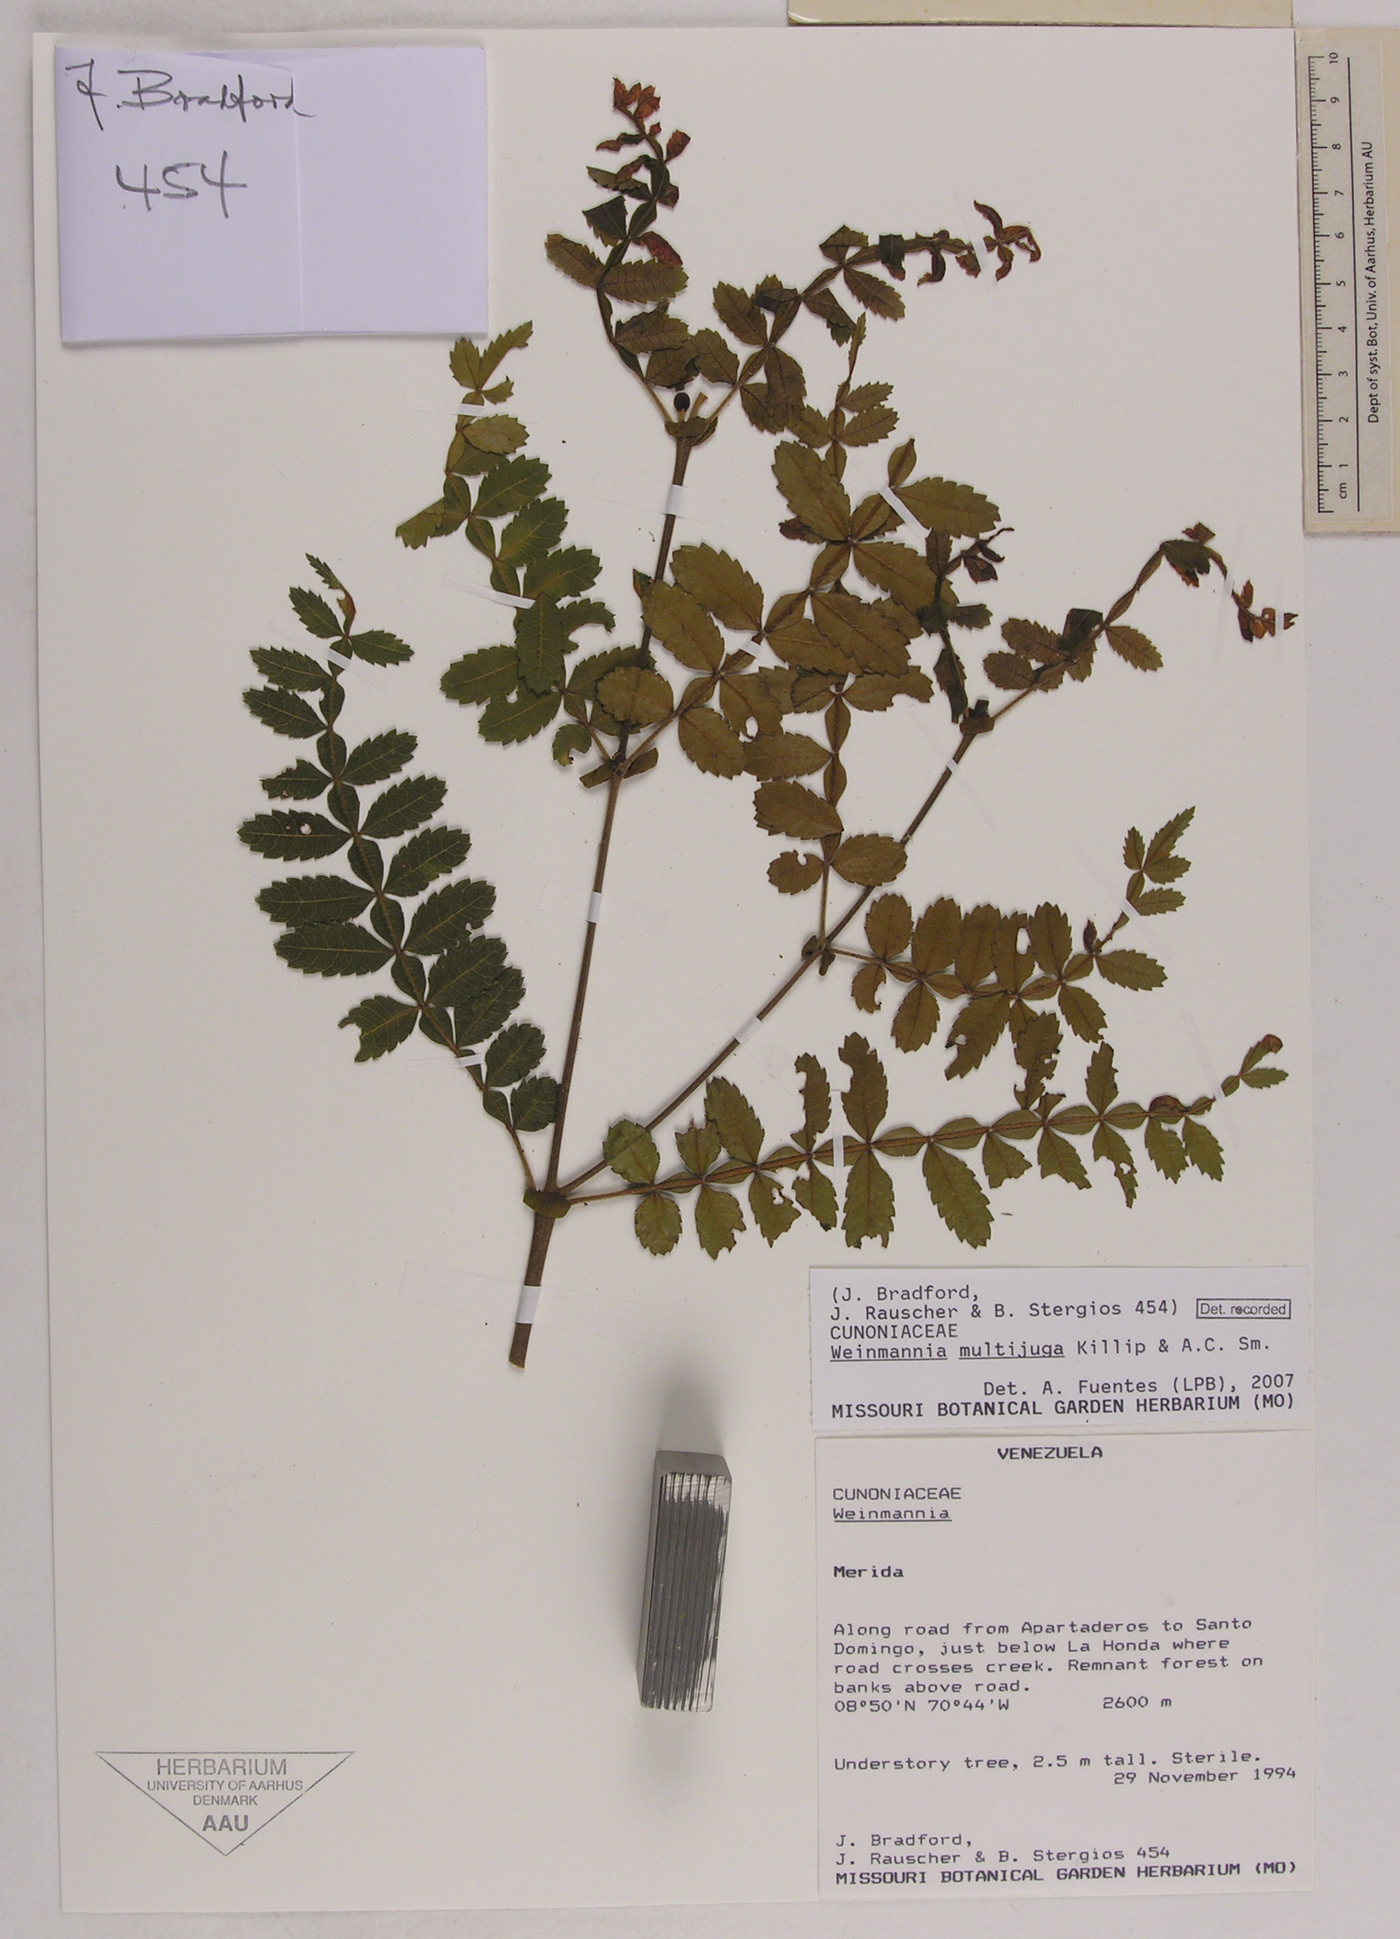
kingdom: Plantae
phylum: Tracheophyta
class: Magnoliopsida
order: Oxalidales
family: Cunoniaceae
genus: Weinmannia
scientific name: Weinmannia multijuga
